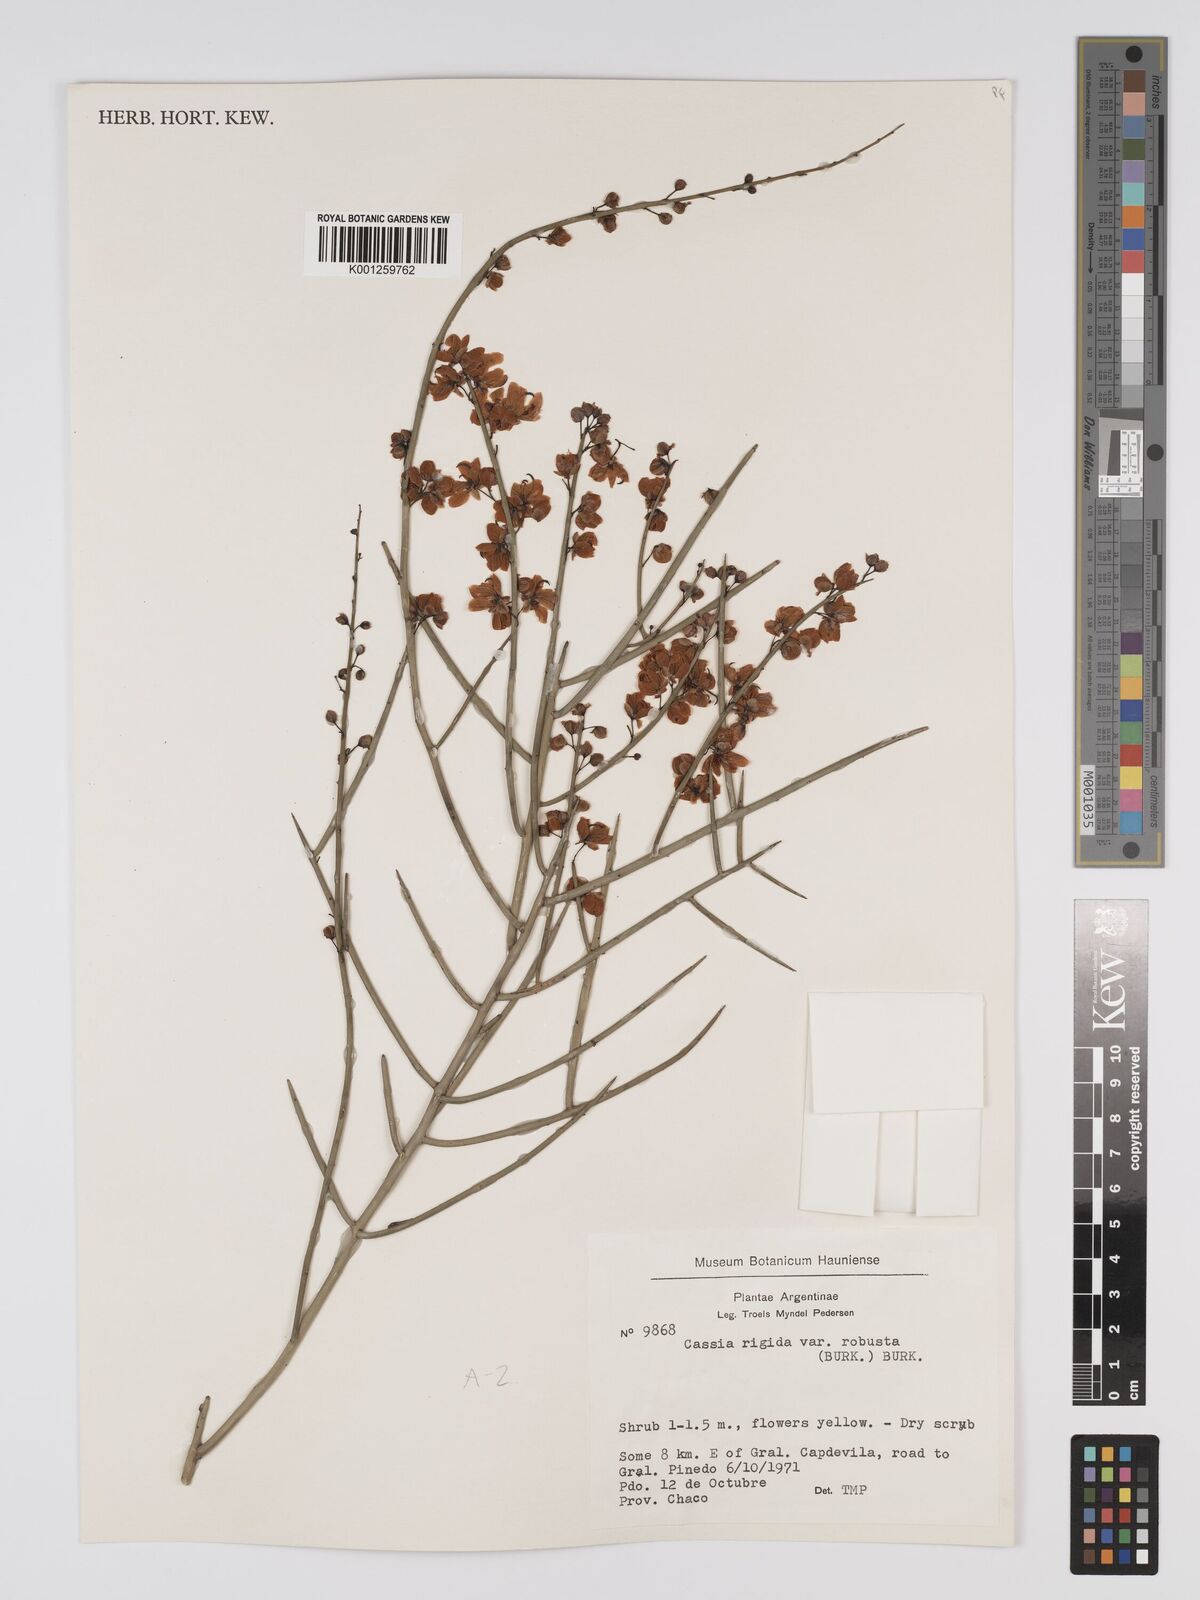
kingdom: Plantae
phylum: Tracheophyta
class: Magnoliopsida
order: Fabales
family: Fabaceae
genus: Senna
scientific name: Senna aphylla
